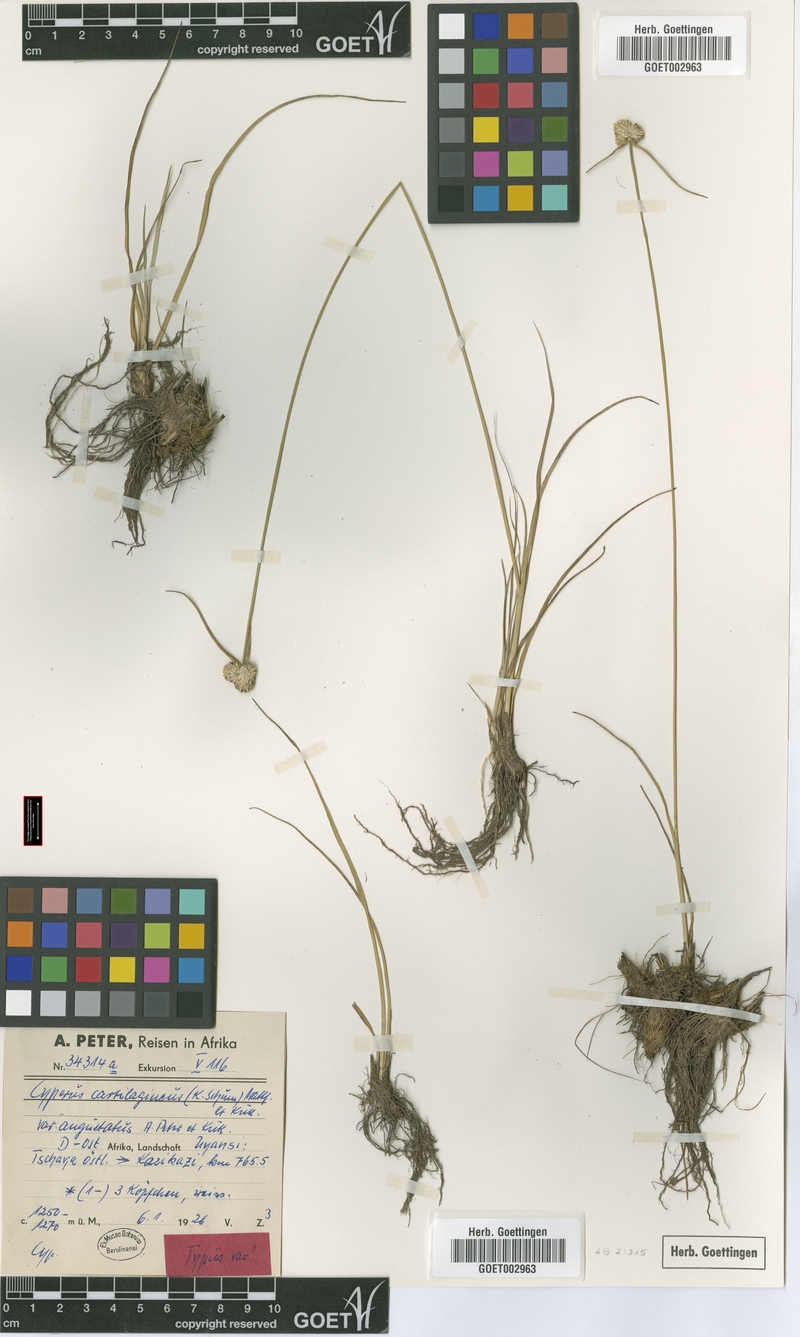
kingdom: Plantae
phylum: Tracheophyta
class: Liliopsida
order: Poales
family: Cyperaceae
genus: Cyperus
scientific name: Cyperus comosipes
